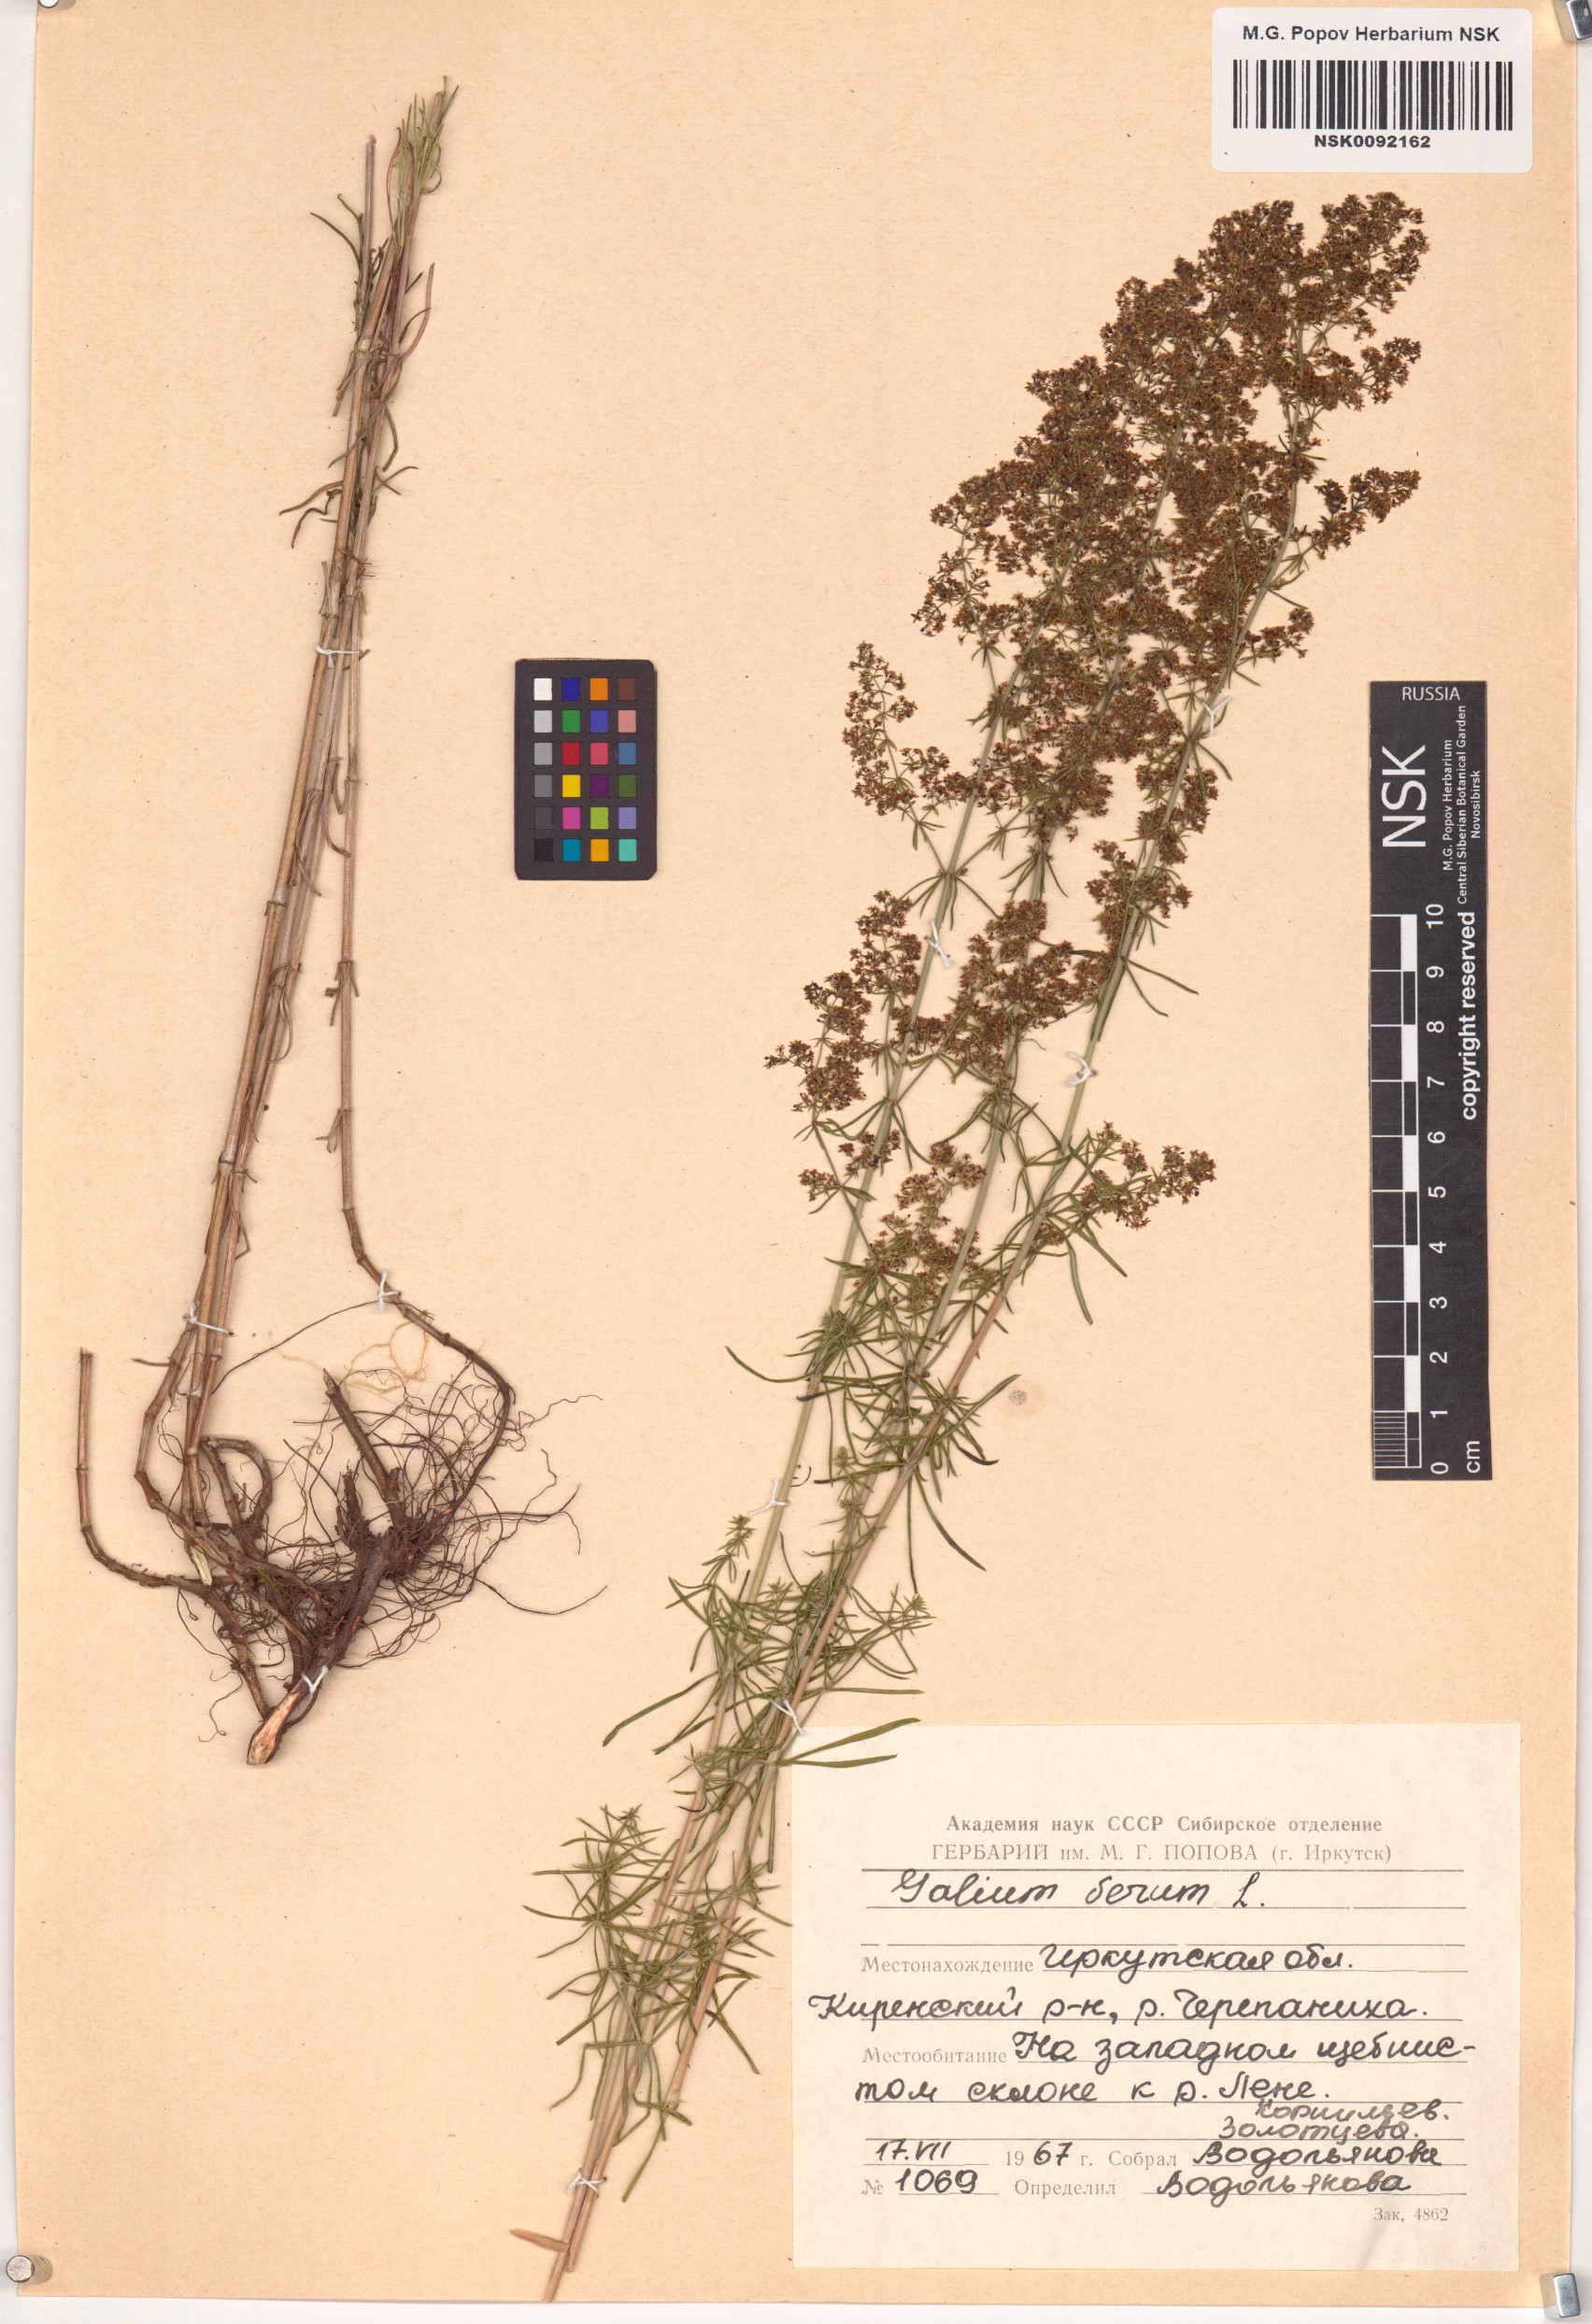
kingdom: Plantae
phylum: Tracheophyta
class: Magnoliopsida
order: Gentianales
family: Rubiaceae
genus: Galium
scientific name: Galium verum
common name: Lady's bedstraw
